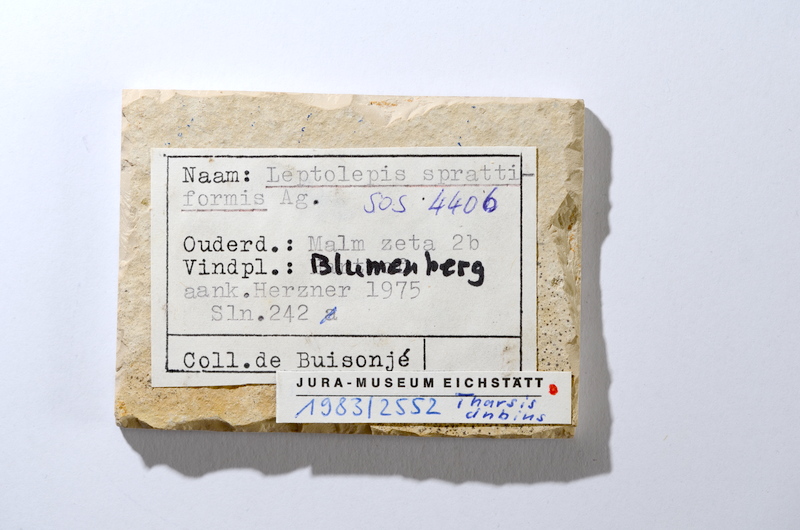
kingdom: Animalia
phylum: Chordata
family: Ascalaboidae
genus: Tharsis
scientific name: Tharsis dubius
